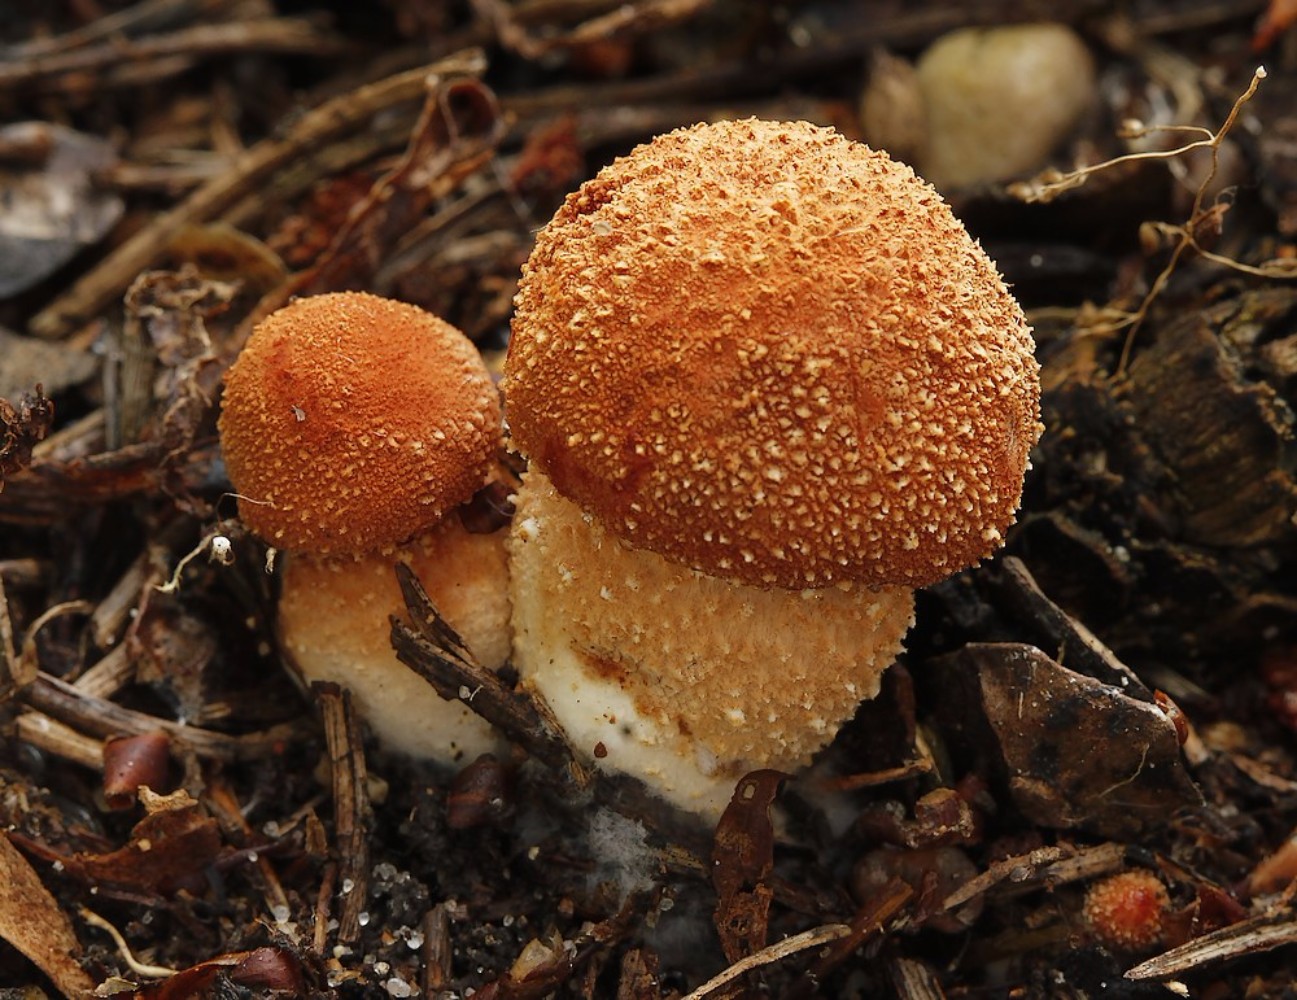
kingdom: Fungi
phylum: Basidiomycota
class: Agaricomycetes
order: Agaricales
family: Agaricaceae
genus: Cystodermella
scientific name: Cystodermella
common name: grynhat
